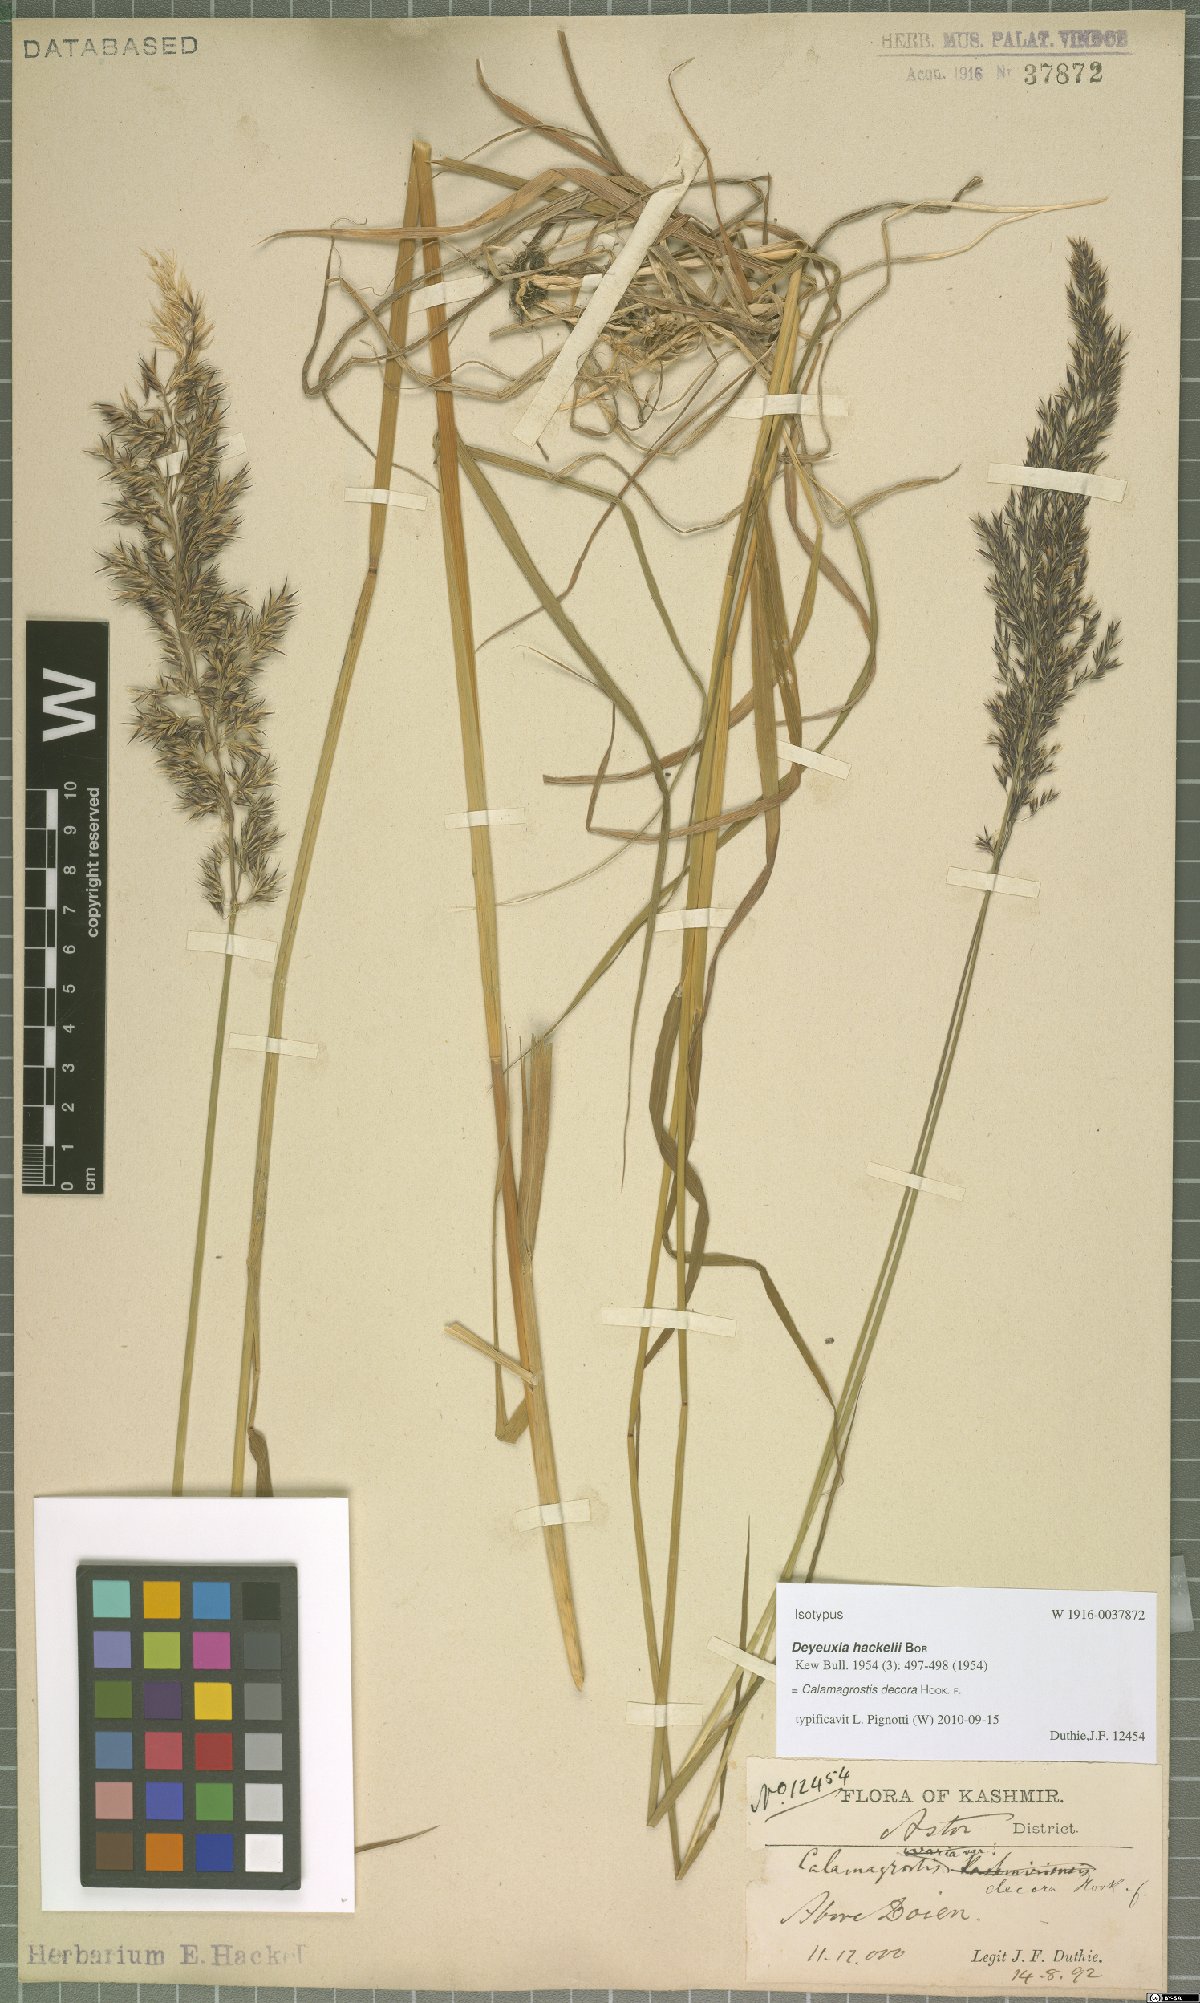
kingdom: Plantae
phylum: Tracheophyta
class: Liliopsida
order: Poales
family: Poaceae
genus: Calamagrostis
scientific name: Calamagrostis decora
